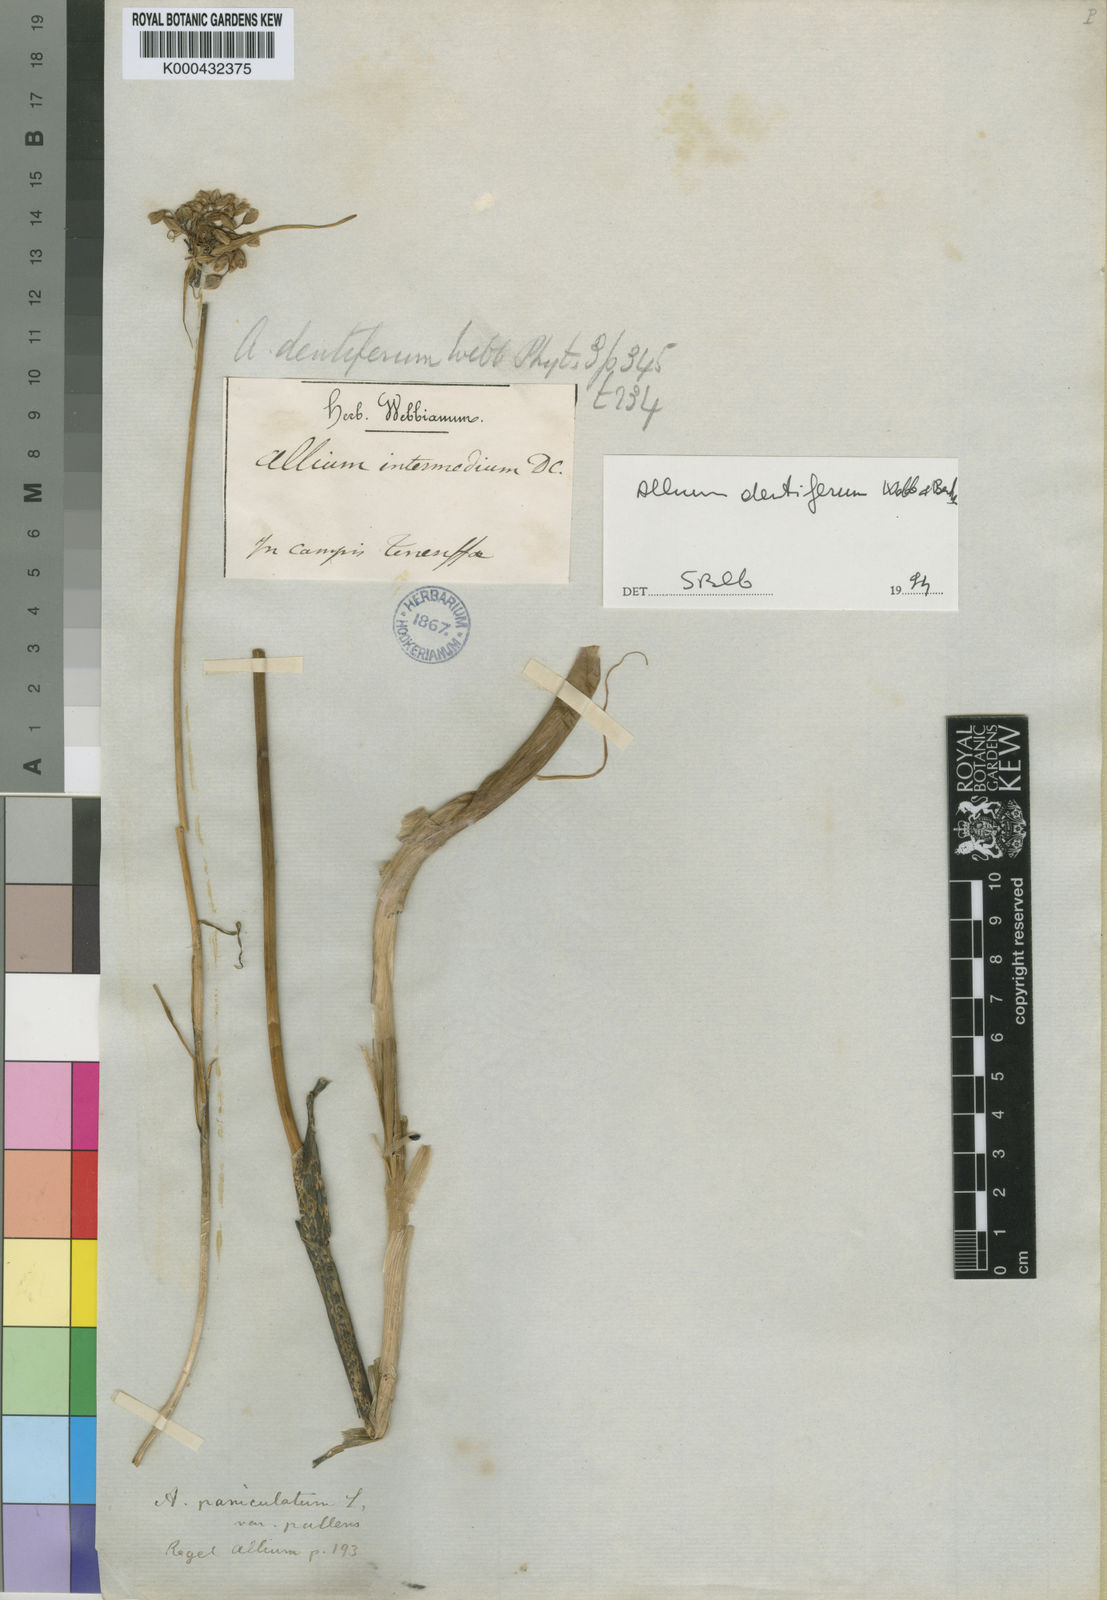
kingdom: Plantae
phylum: Tracheophyta
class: Liliopsida
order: Asparagales
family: Amaryllidaceae
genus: Allium
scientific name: Allium paniculatum
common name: Pale garlic
